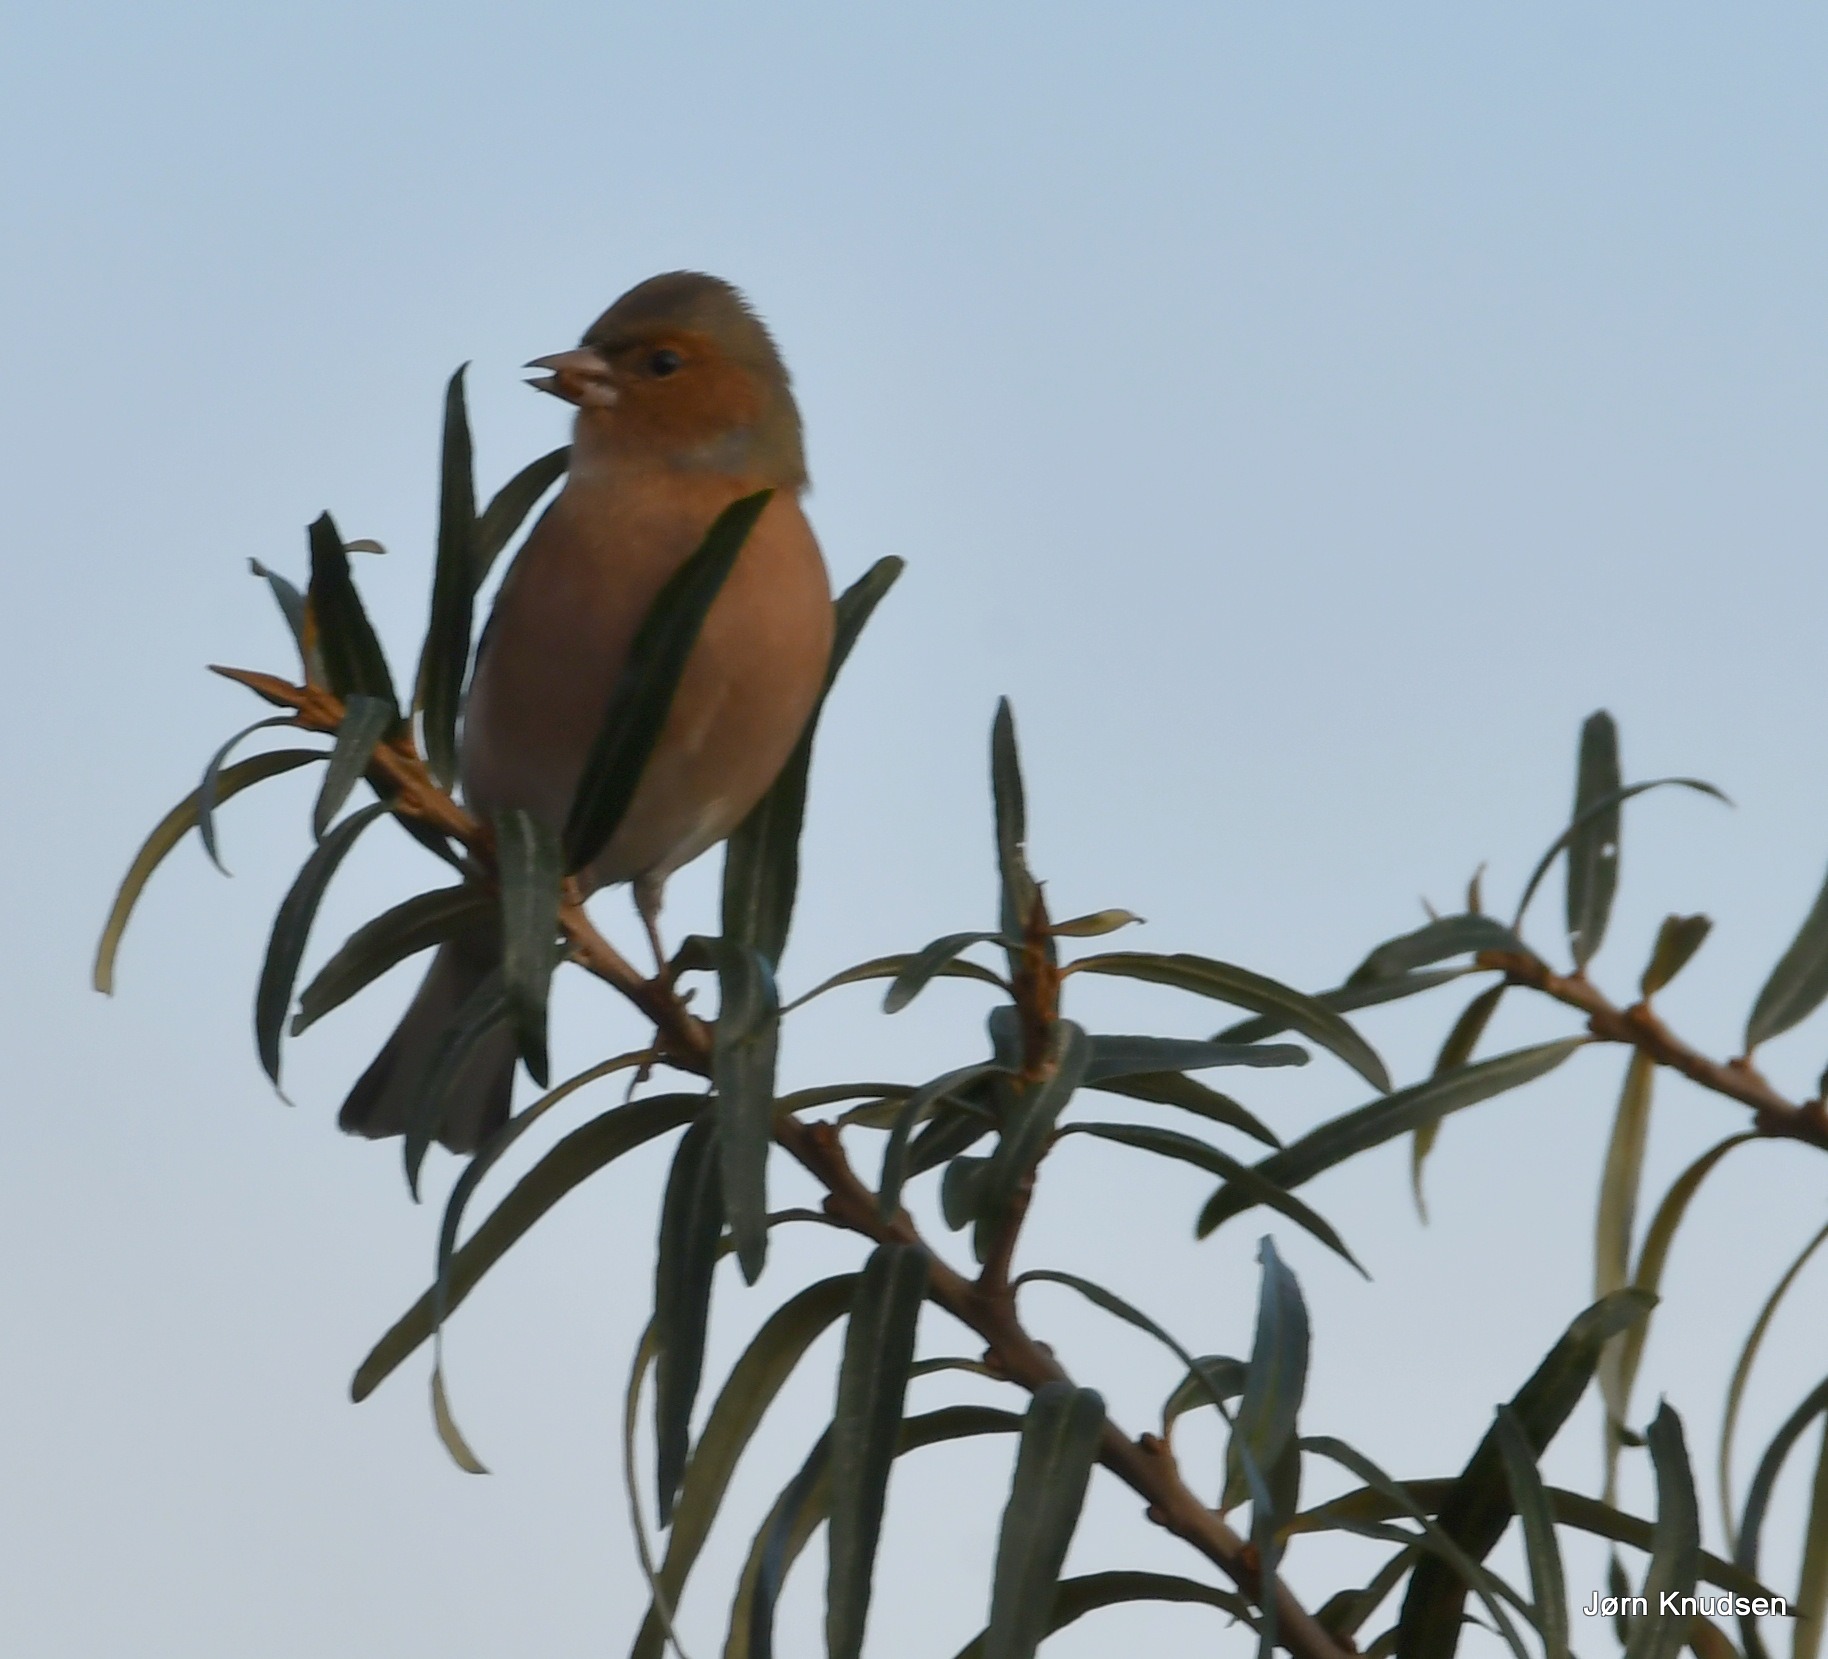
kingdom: Animalia
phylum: Chordata
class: Aves
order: Passeriformes
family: Fringillidae
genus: Fringilla
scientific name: Fringilla coelebs
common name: Bogfinke
